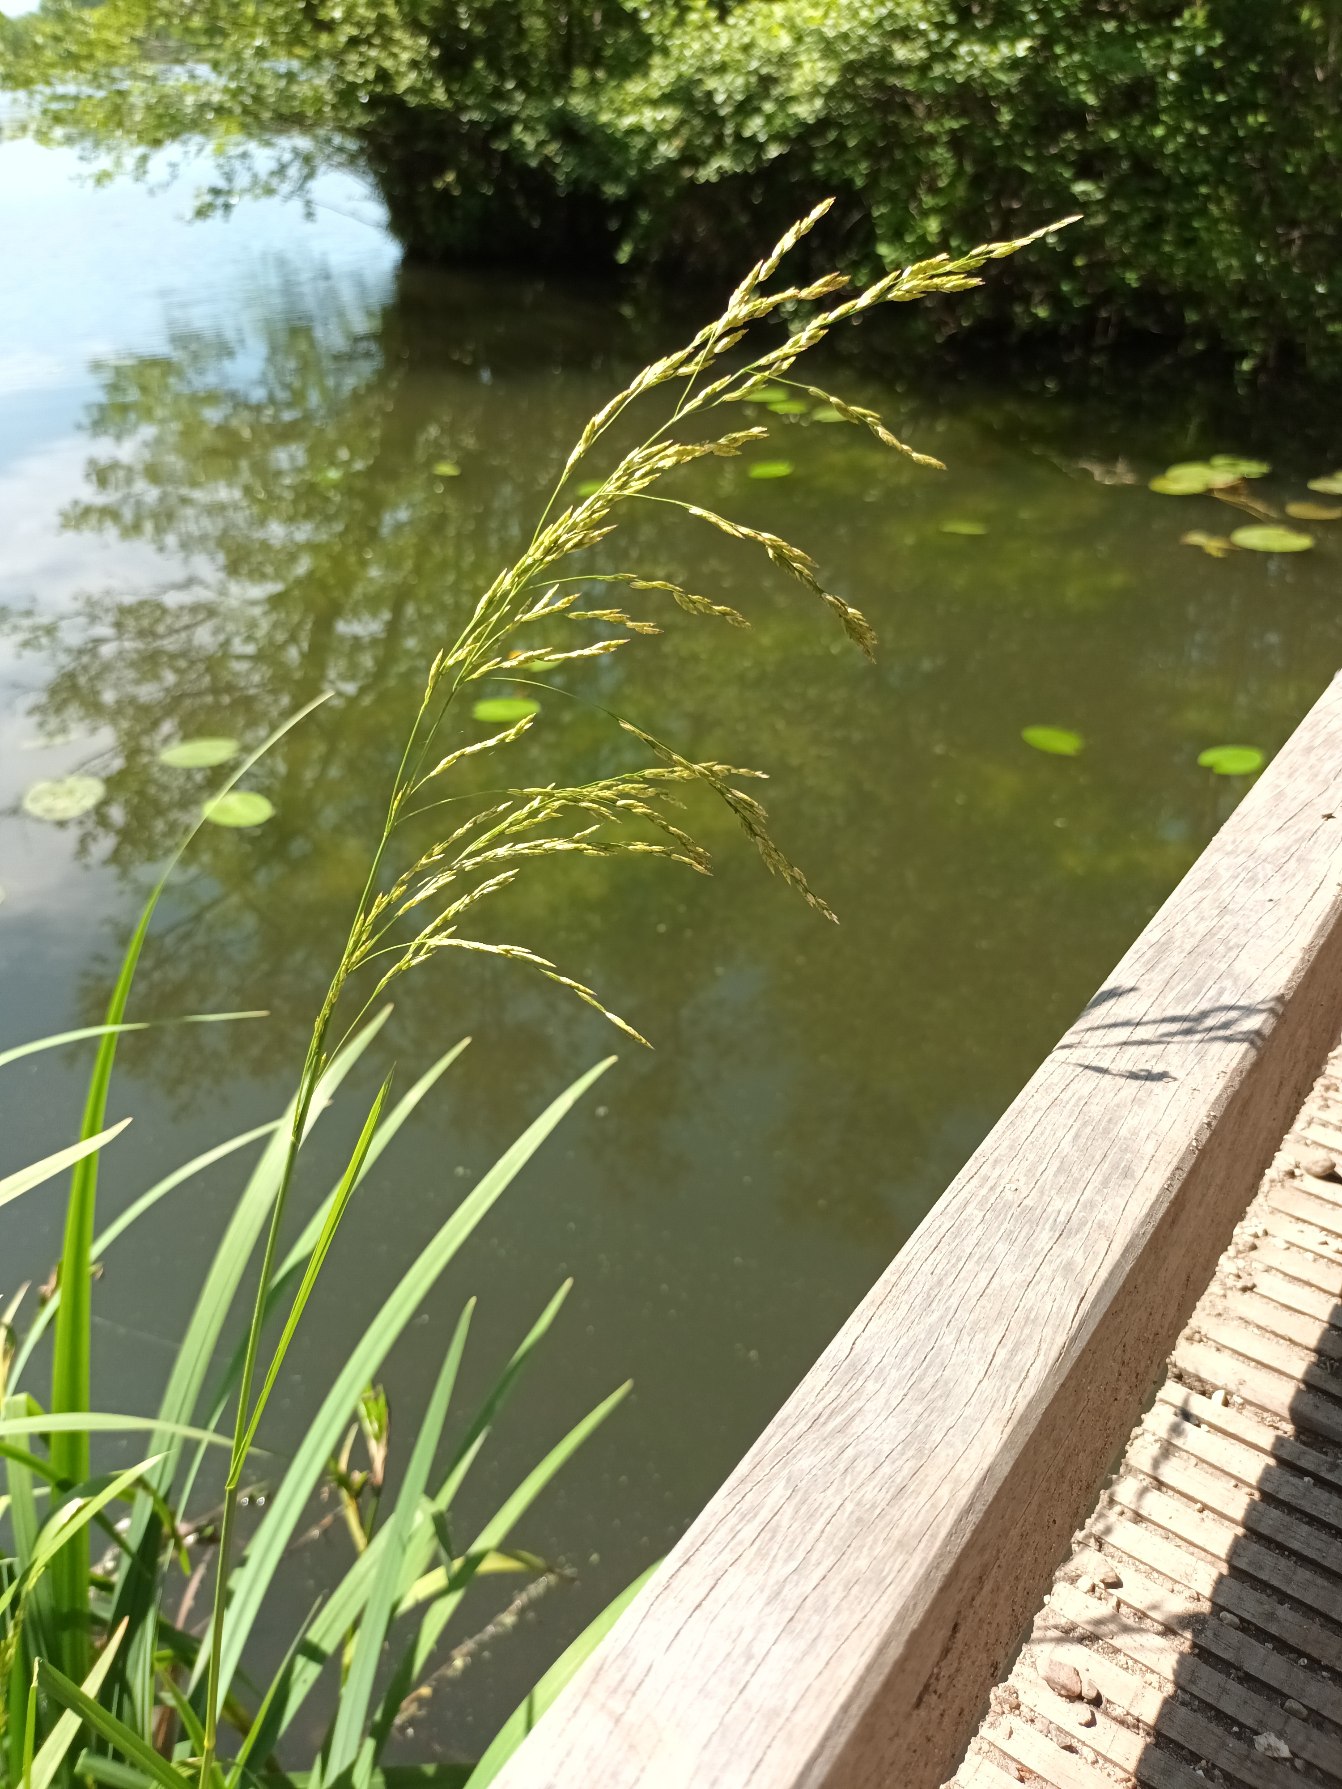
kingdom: Plantae
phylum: Tracheophyta
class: Liliopsida
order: Poales
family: Poaceae
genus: Glyceria
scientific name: Glyceria maxima
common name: Høj sødgræs
